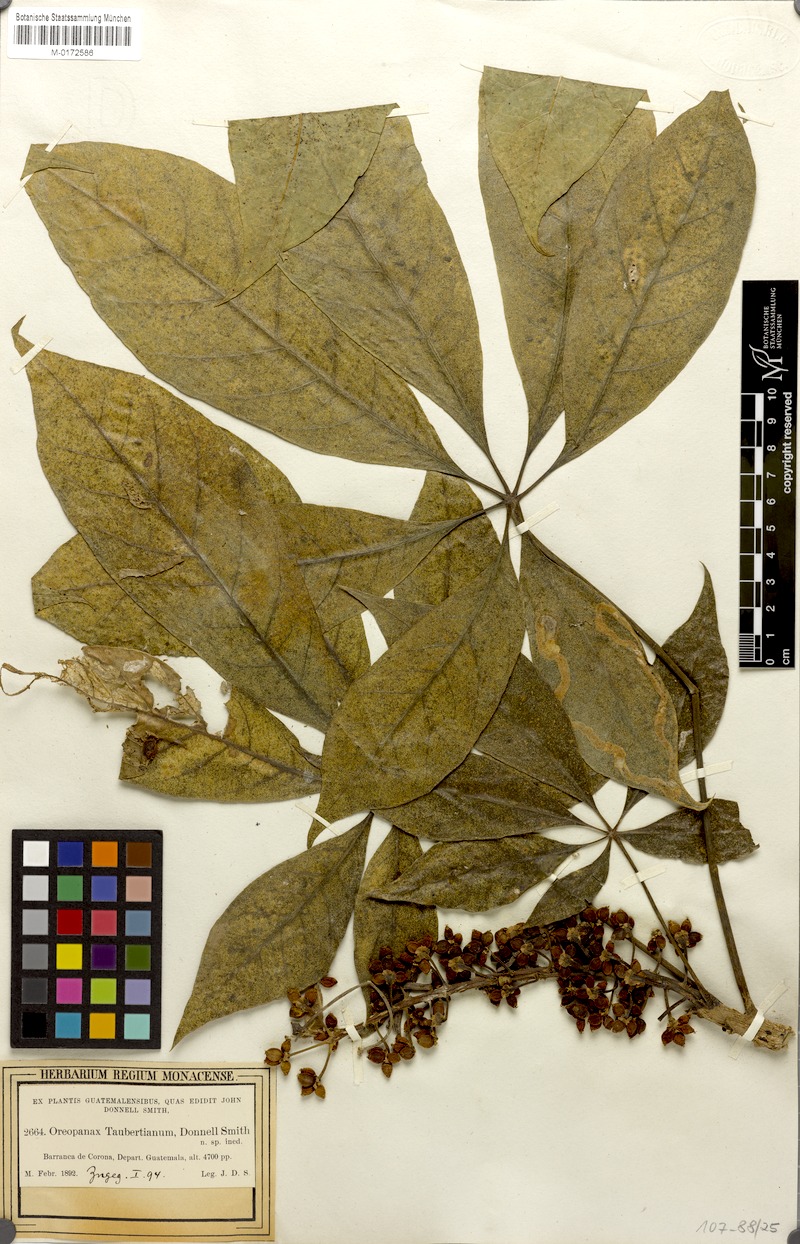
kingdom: Plantae
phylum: Tracheophyta
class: Magnoliopsida
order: Apiales
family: Araliaceae
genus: Oreopanax
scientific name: Oreopanax xalapensis
